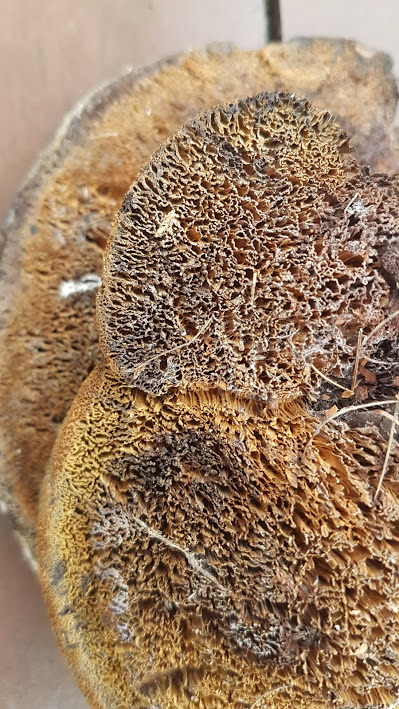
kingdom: Fungi
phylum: Basidiomycota
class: Agaricomycetes
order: Polyporales
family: Laetiporaceae
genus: Phaeolus
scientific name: Phaeolus schweinitzii
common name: brunporesvamp
